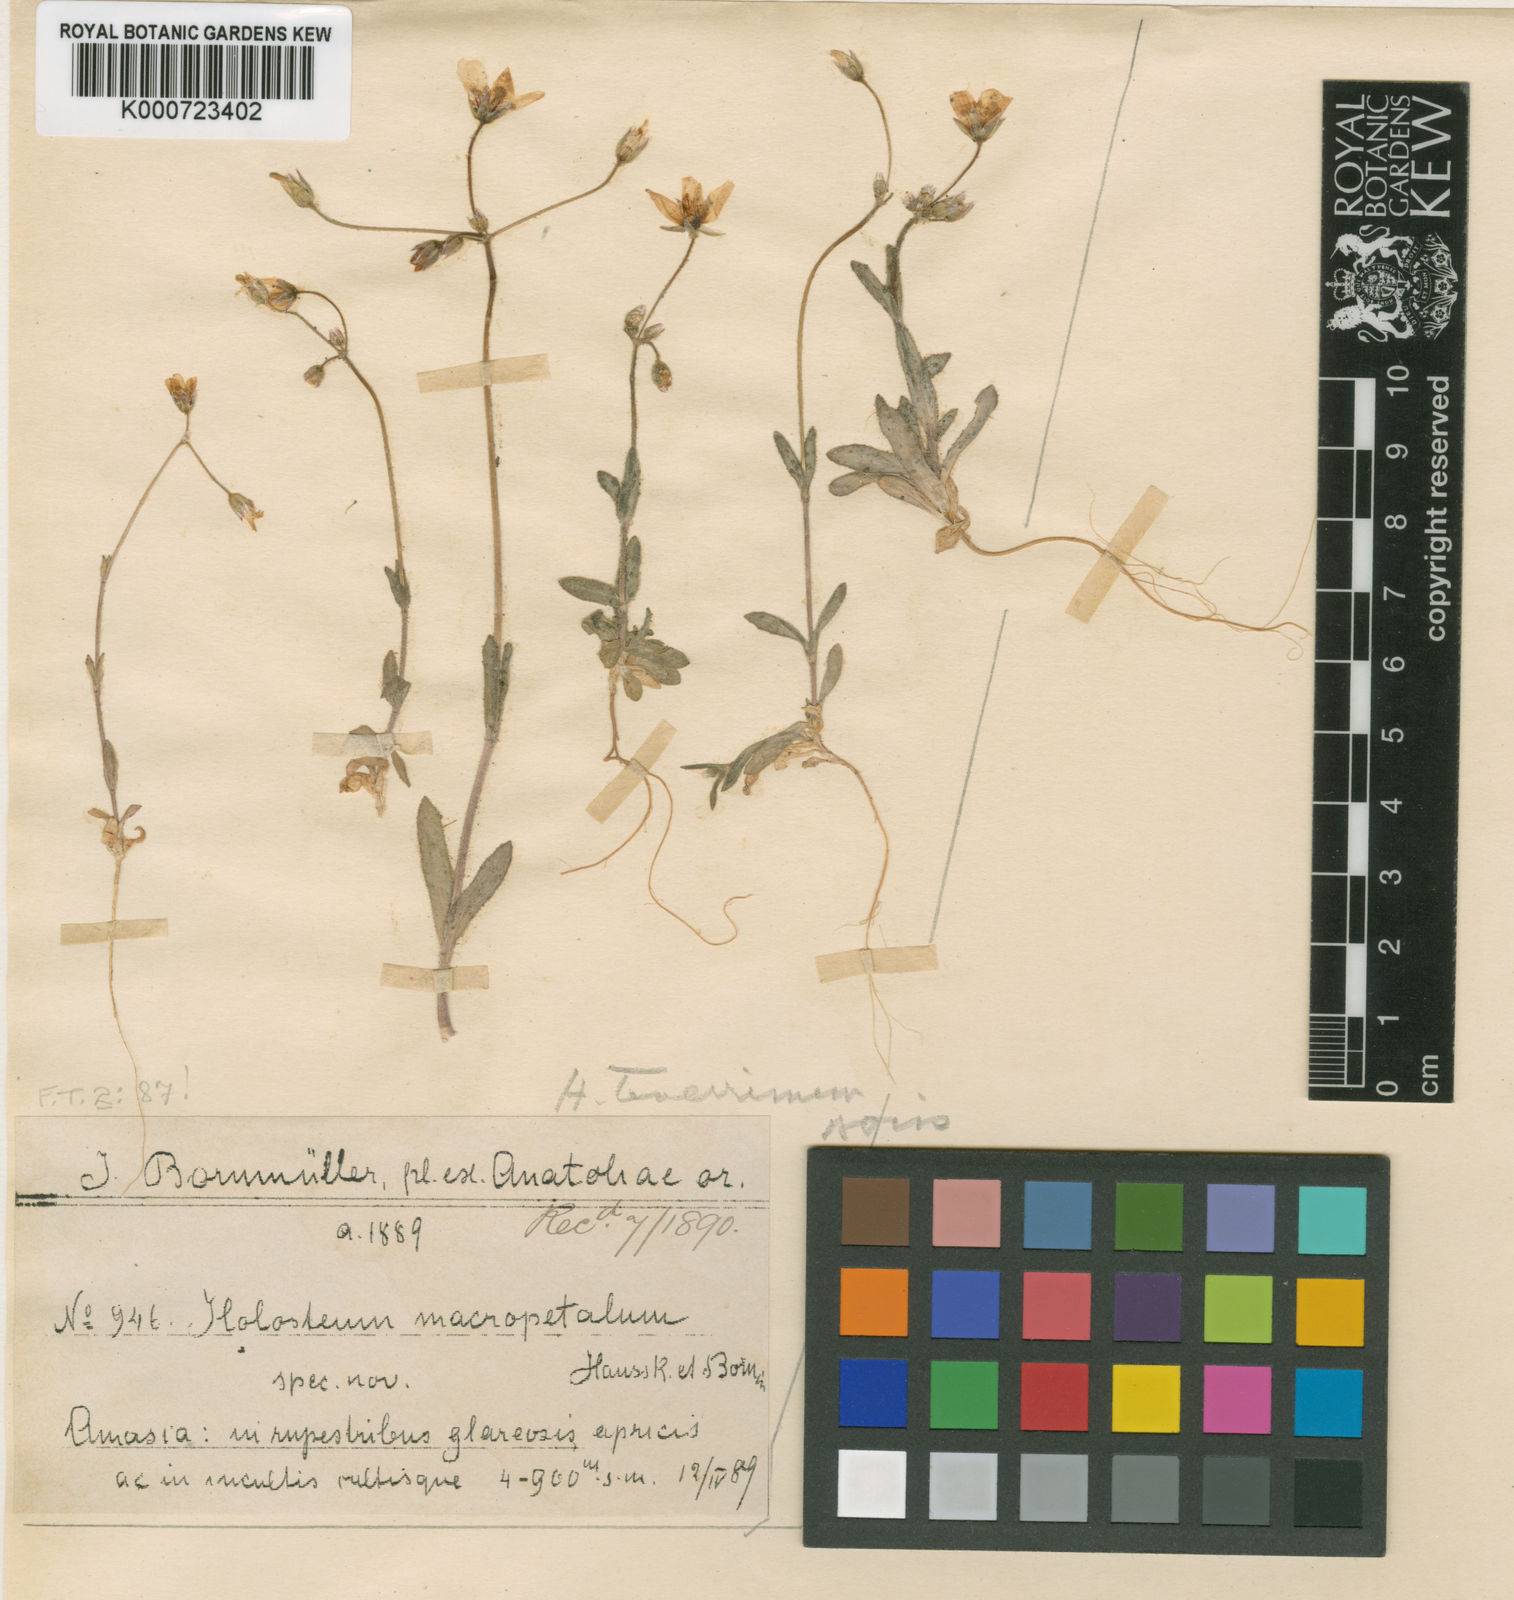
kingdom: Plantae
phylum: Tracheophyta
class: Magnoliopsida
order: Caryophyllales
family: Caryophyllaceae
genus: Holosteum
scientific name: Holosteum umbellatum
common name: Jagged chickweed
